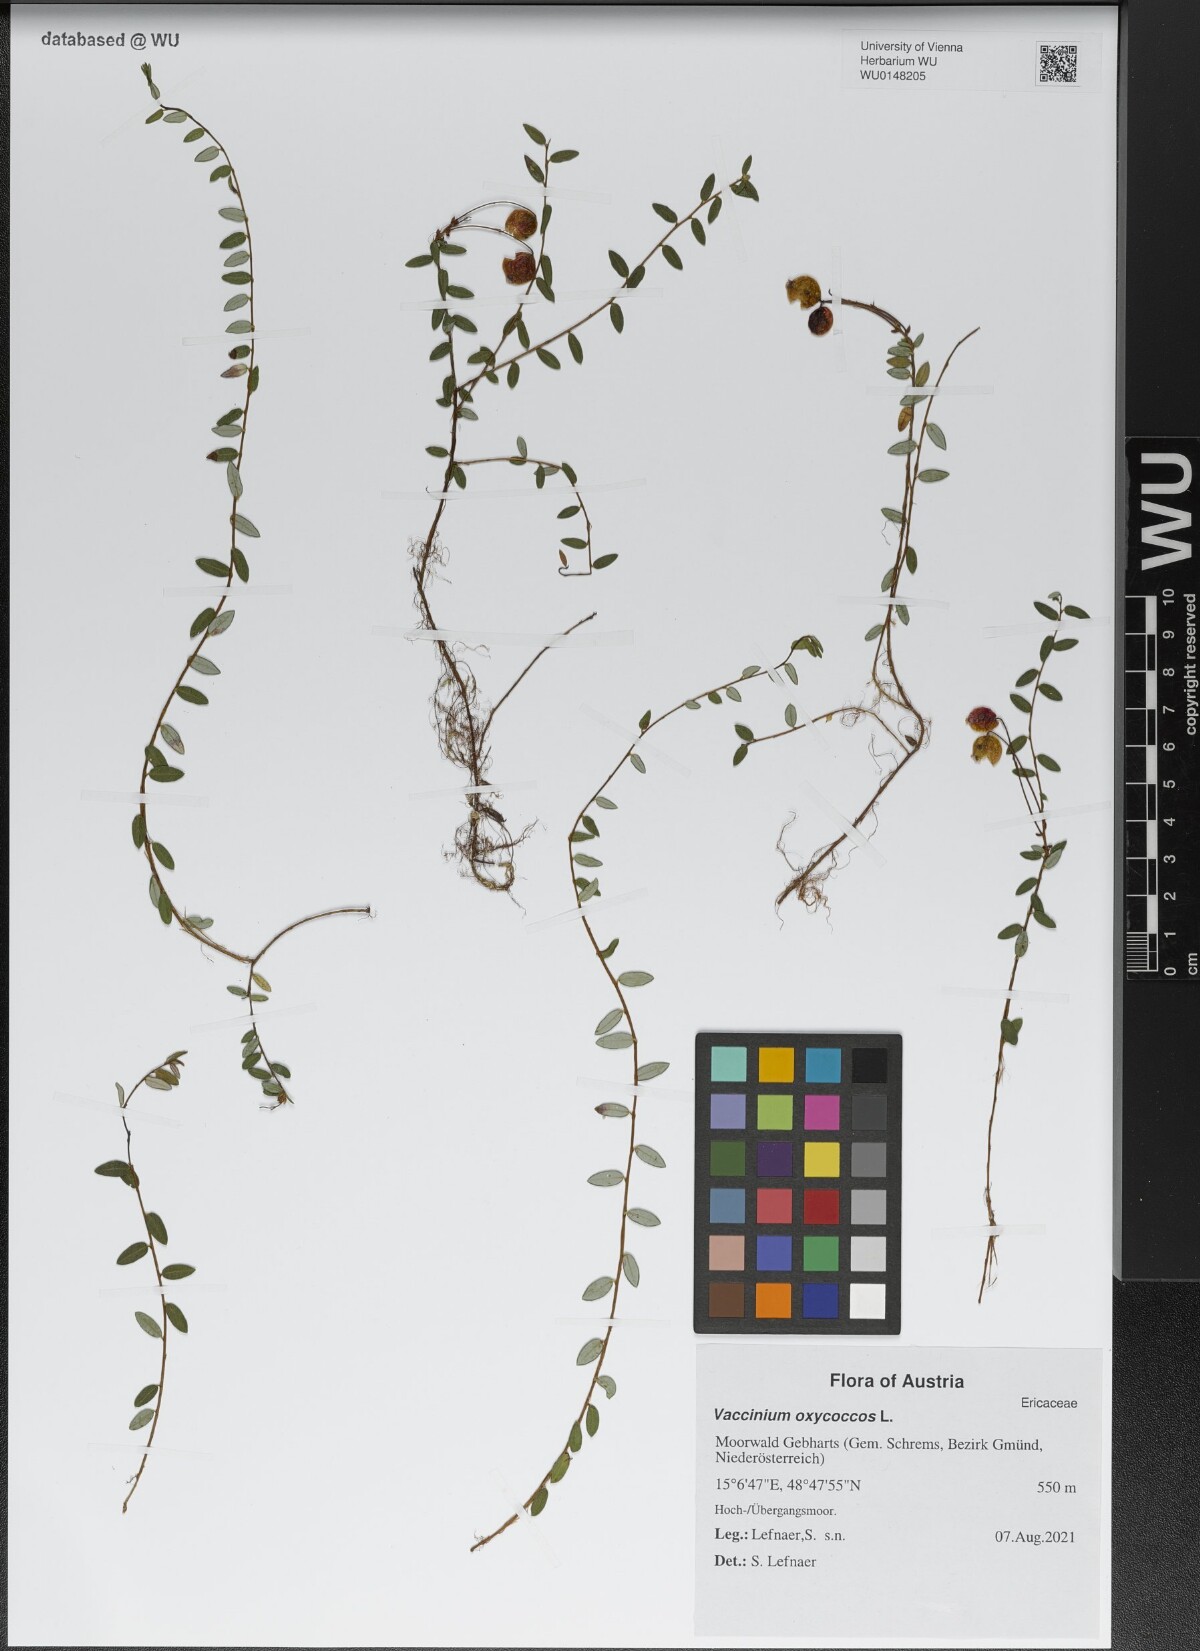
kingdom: Plantae
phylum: Tracheophyta
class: Magnoliopsida
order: Ericales
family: Ericaceae
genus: Vaccinium
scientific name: Vaccinium oxycoccos
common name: Cranberry
